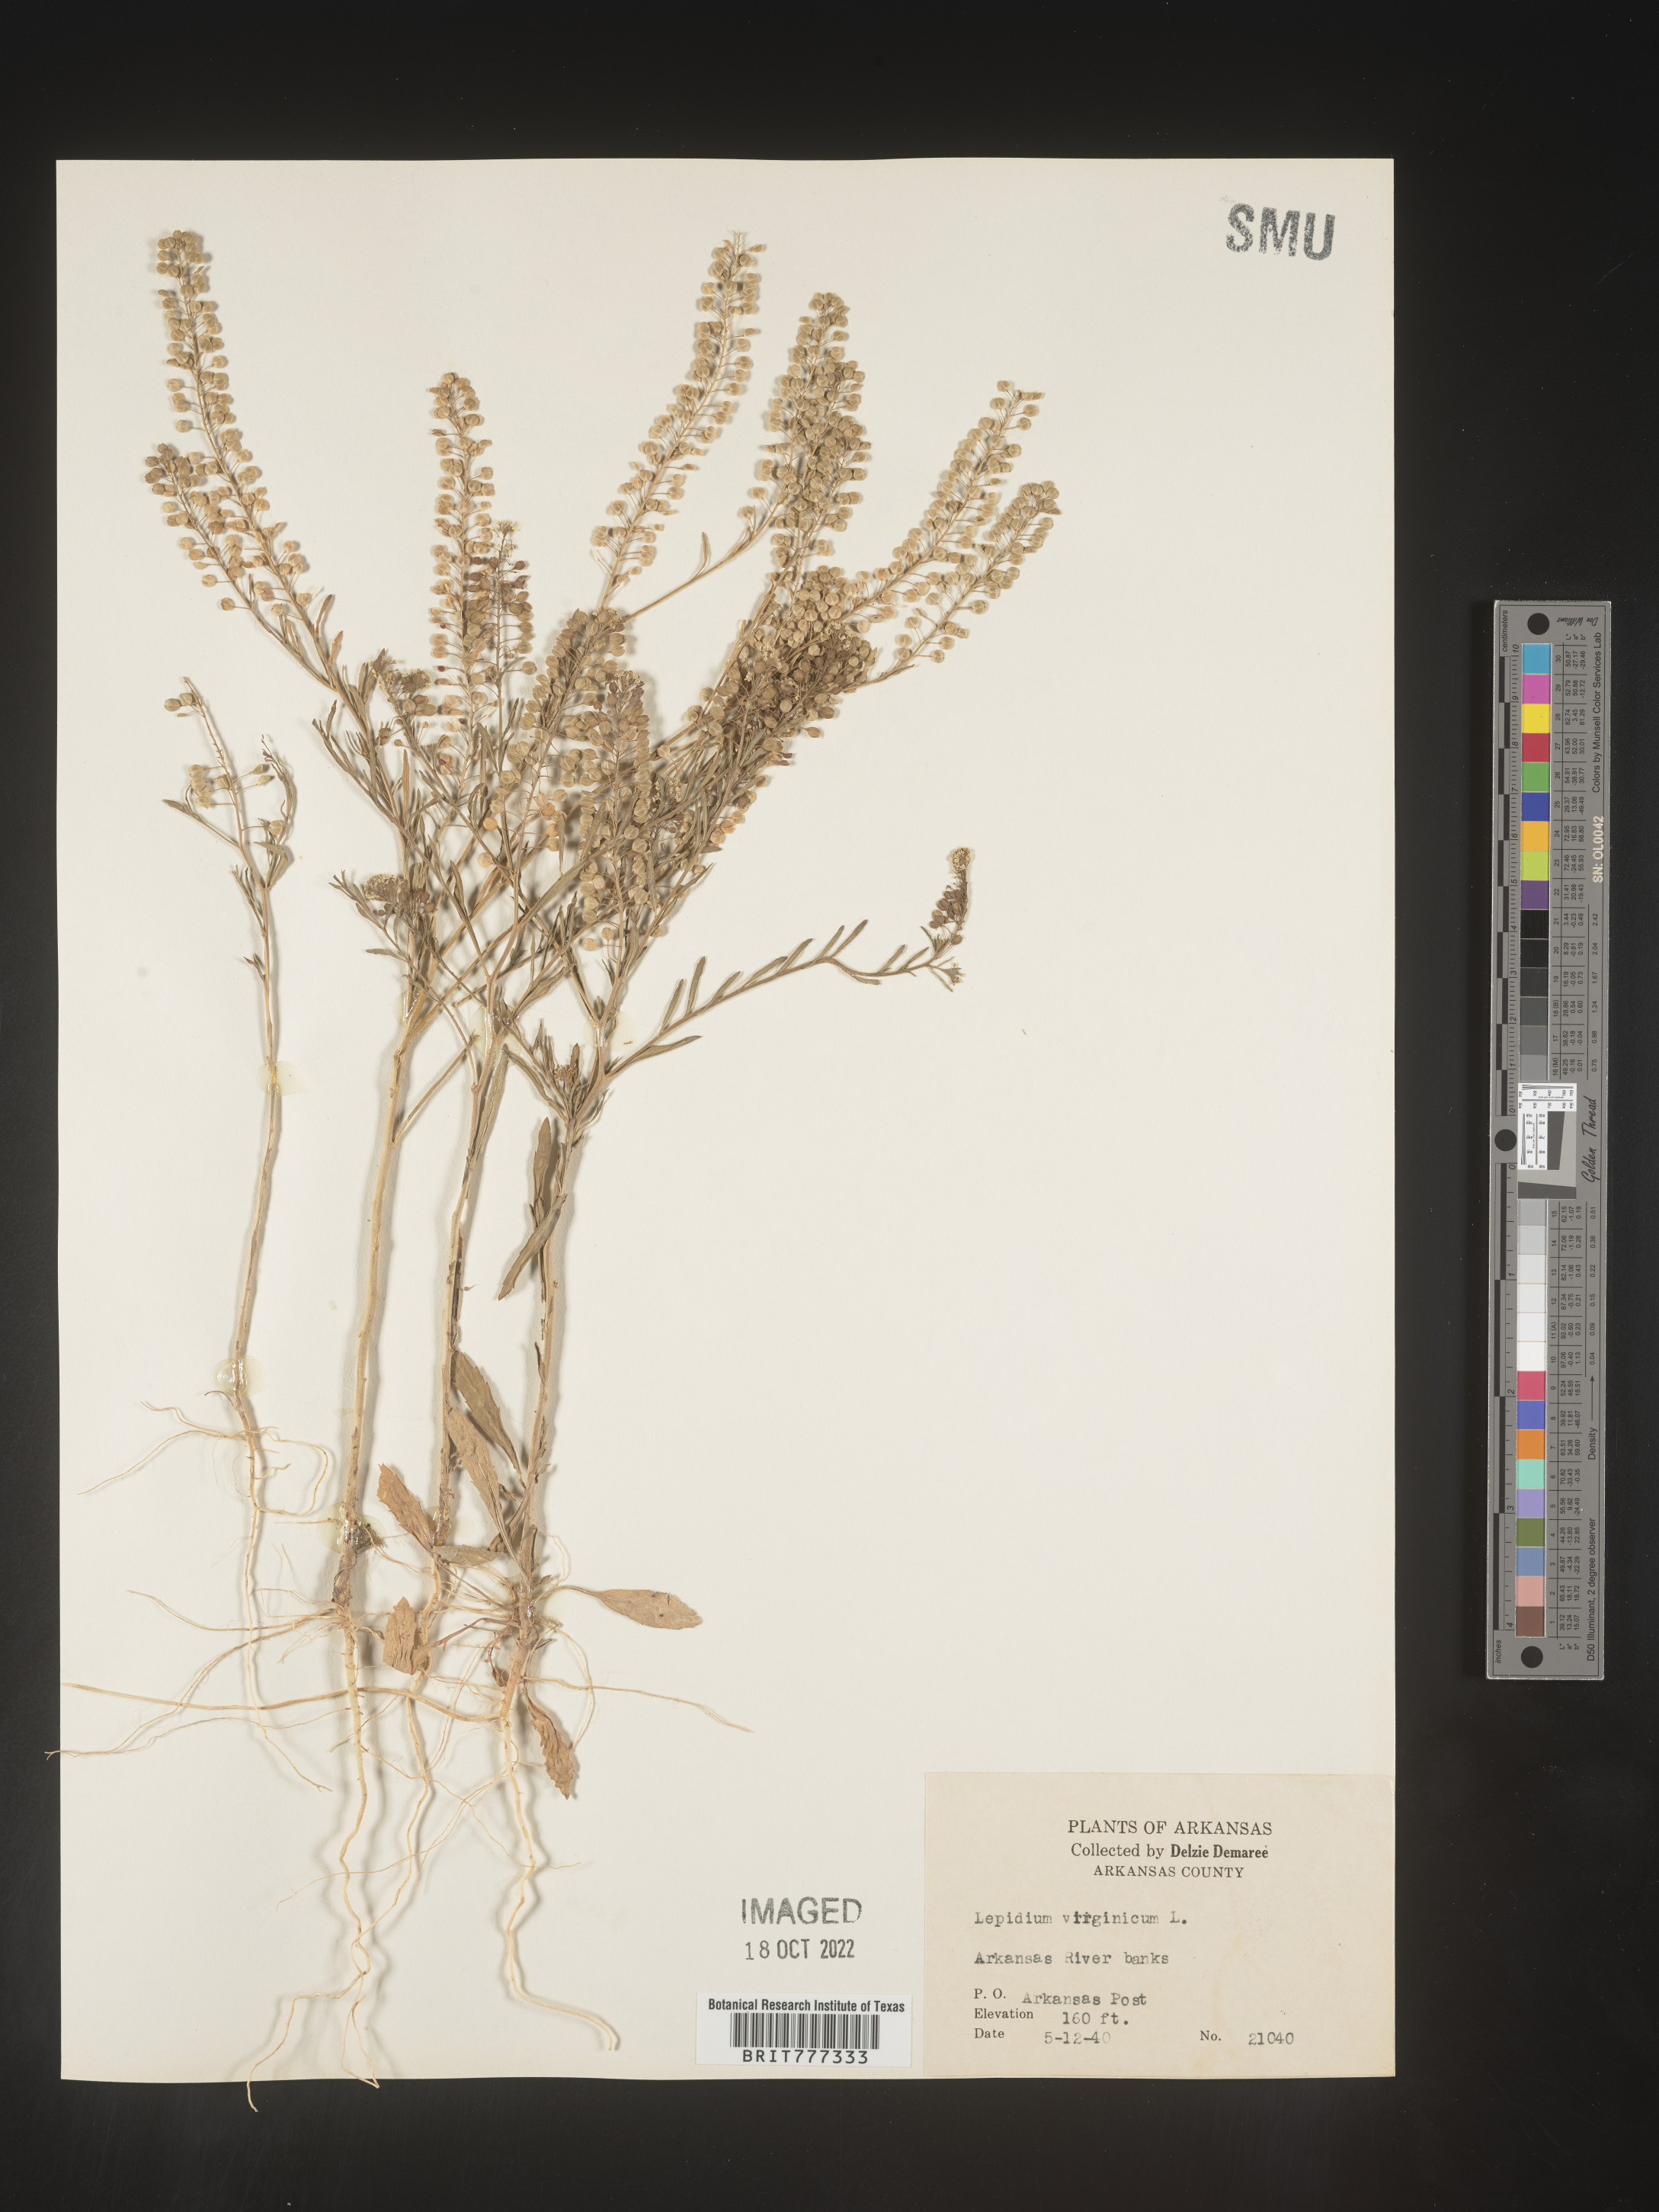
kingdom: Plantae
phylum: Tracheophyta
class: Magnoliopsida
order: Brassicales
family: Brassicaceae
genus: Lepidium
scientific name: Lepidium virginicum
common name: Least pepperwort
